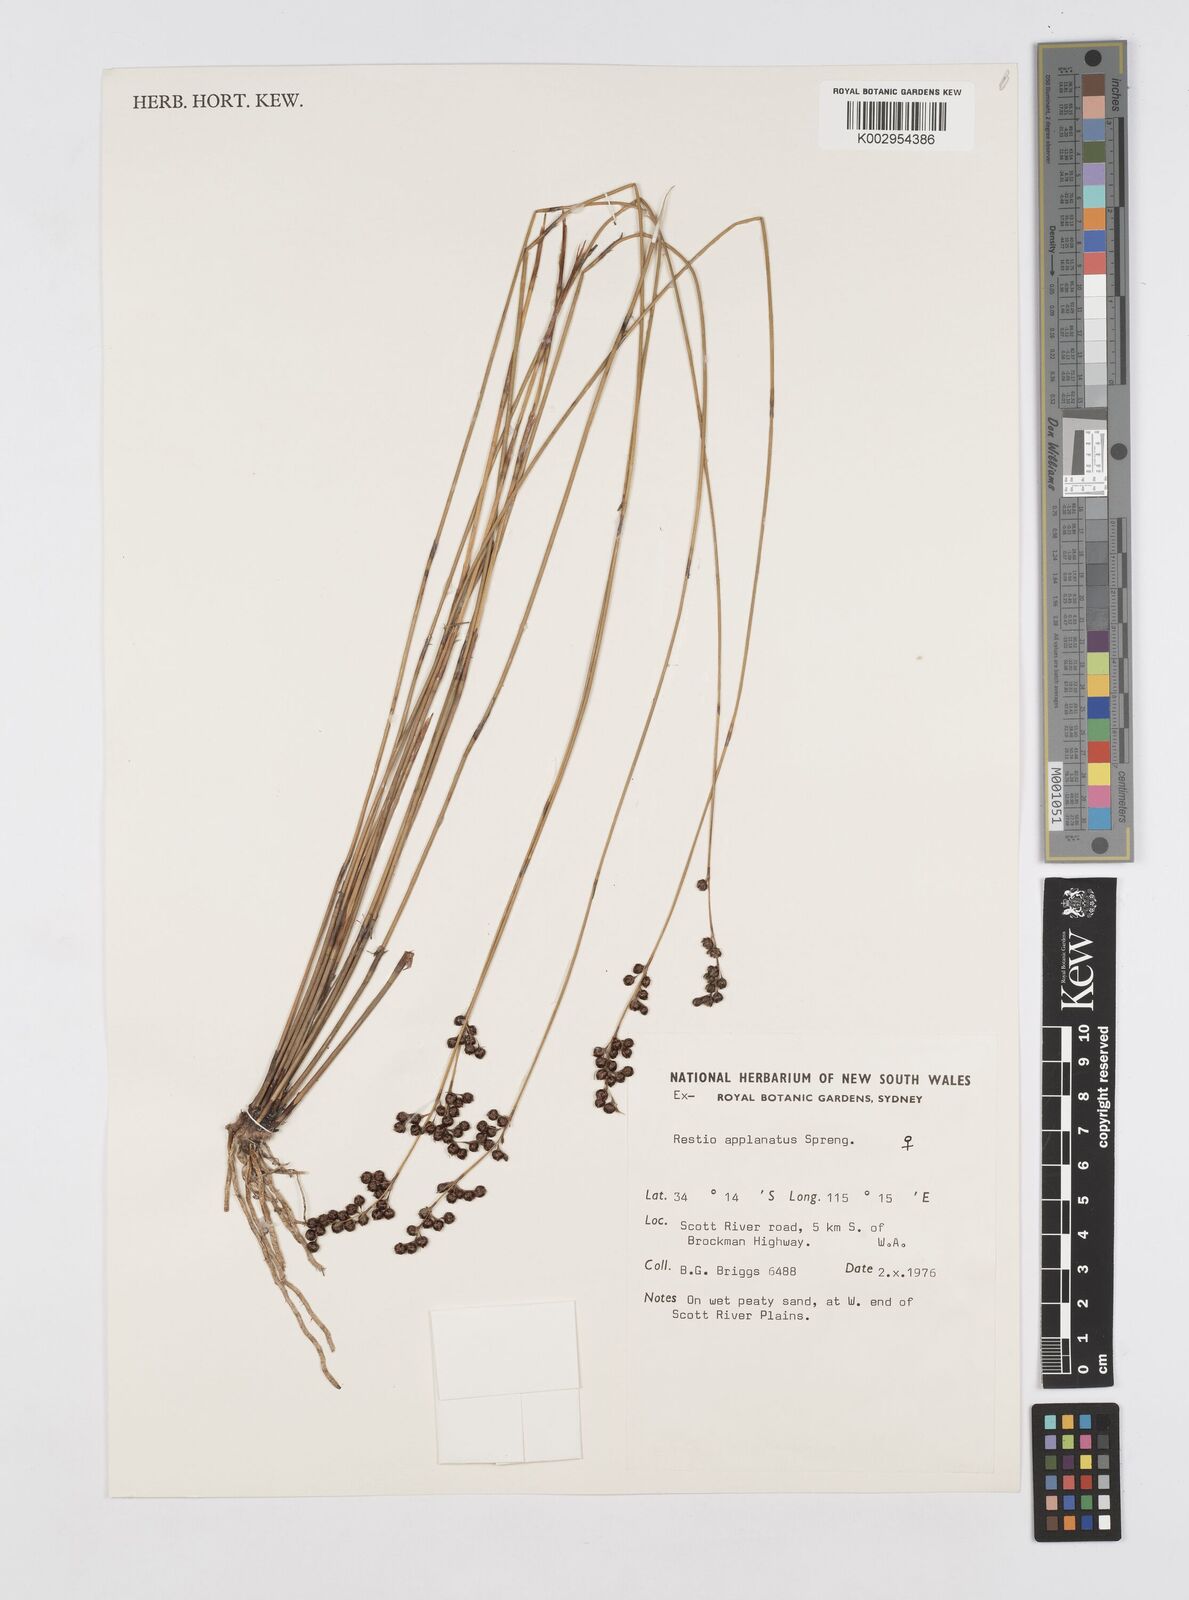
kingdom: Plantae
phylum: Tracheophyta
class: Liliopsida
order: Poales
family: Restionaceae
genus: Platychorda
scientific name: Platychorda applanata
